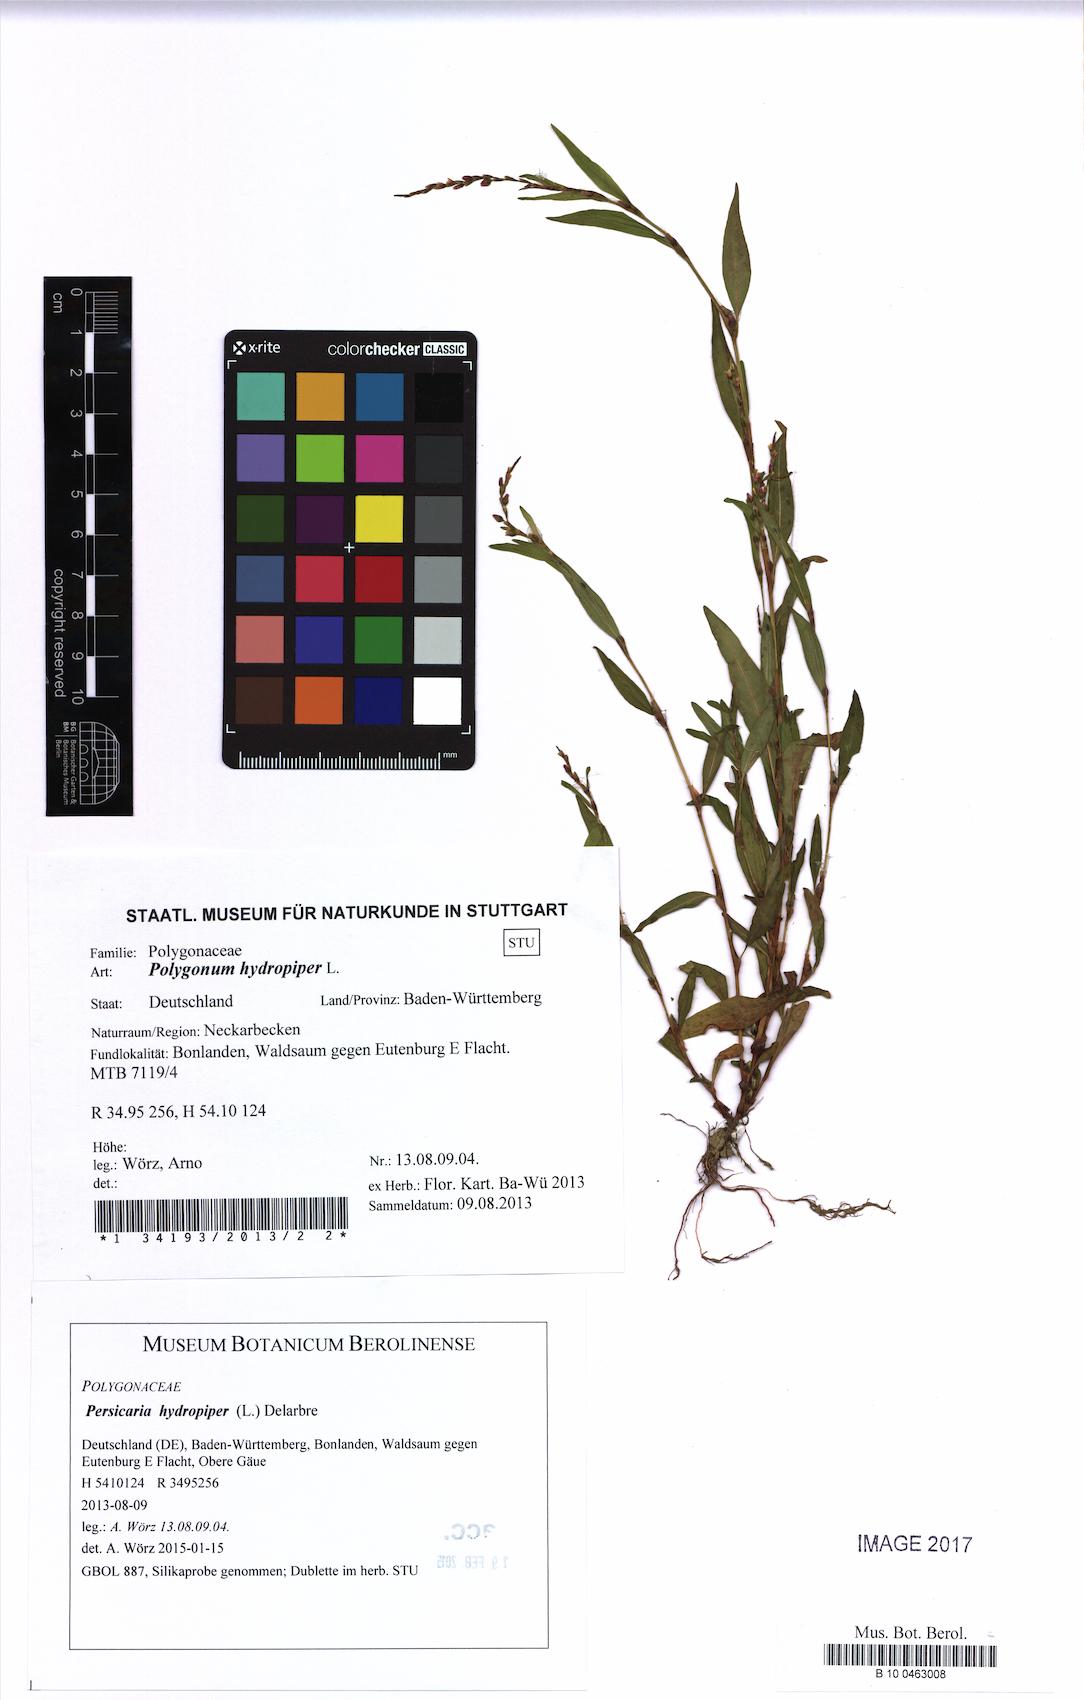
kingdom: Plantae
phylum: Tracheophyta
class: Magnoliopsida
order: Caryophyllales
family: Polygonaceae
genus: Persicaria
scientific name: Persicaria hydropiper
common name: Water-pepper
